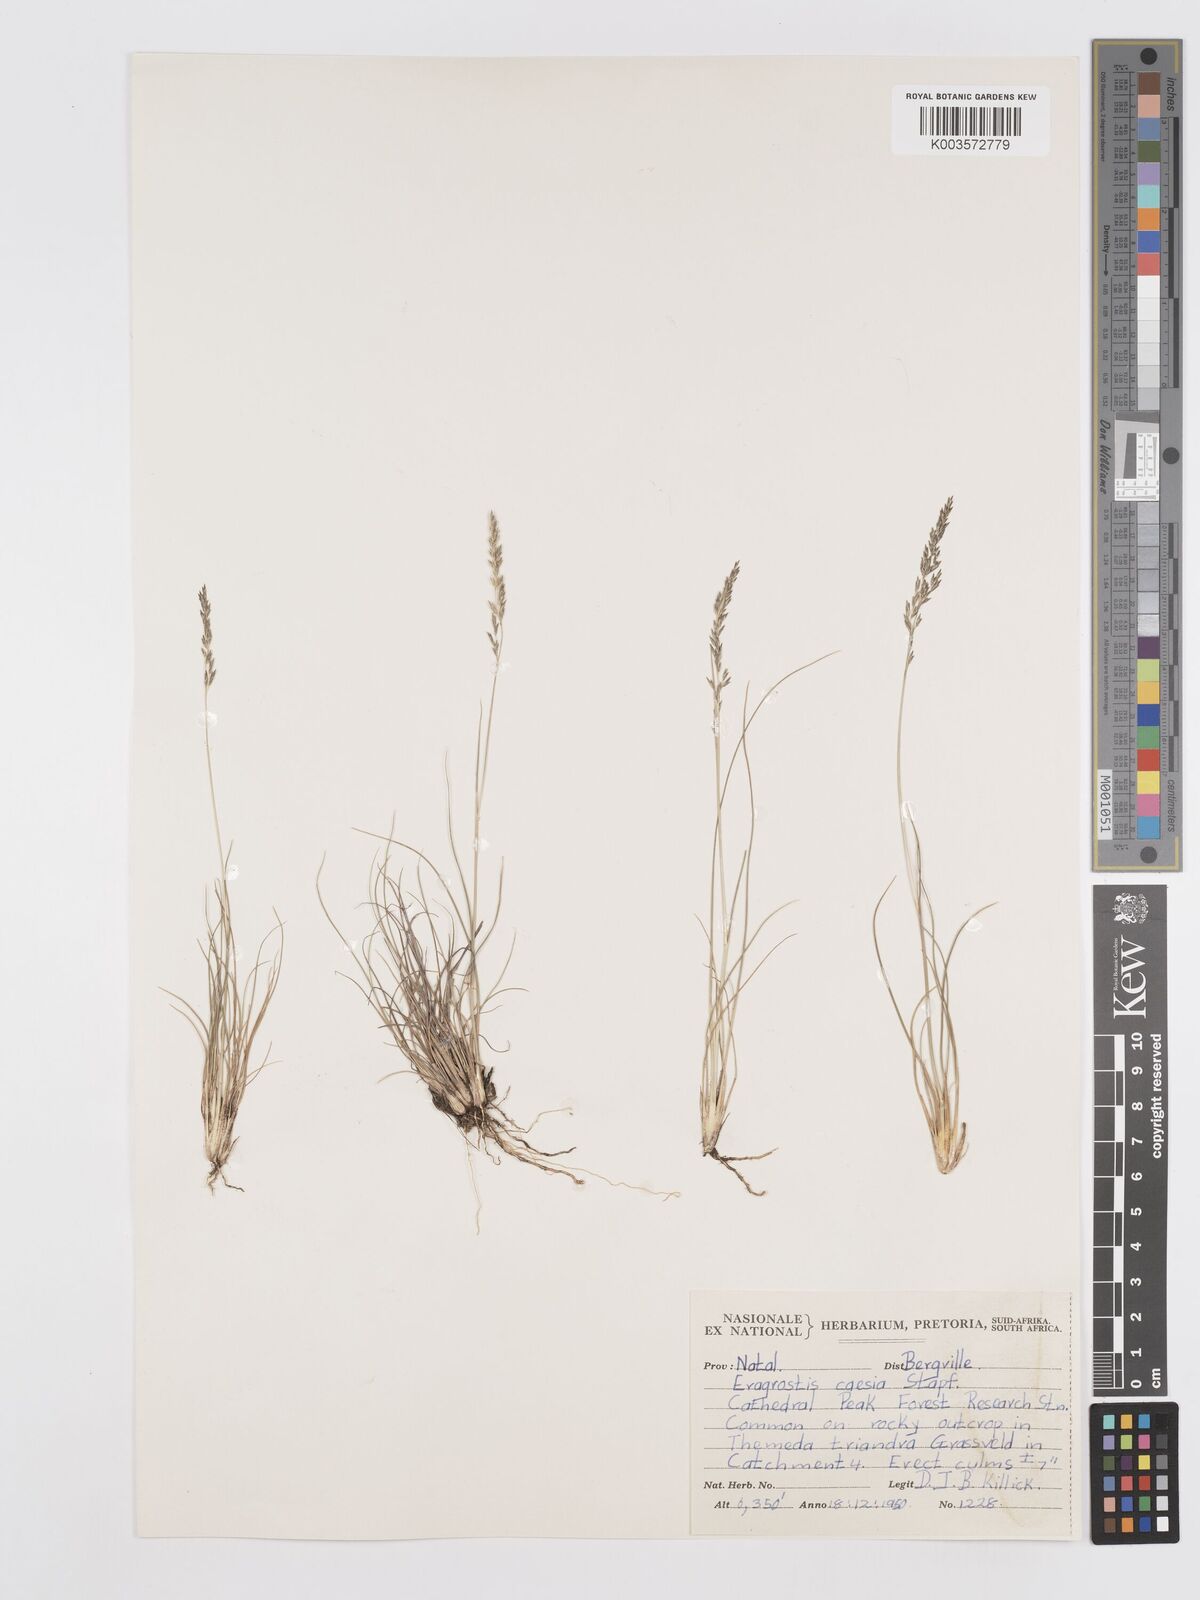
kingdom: Plantae
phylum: Tracheophyta
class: Liliopsida
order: Poales
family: Poaceae
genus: Eragrostis
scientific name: Eragrostis caesia
